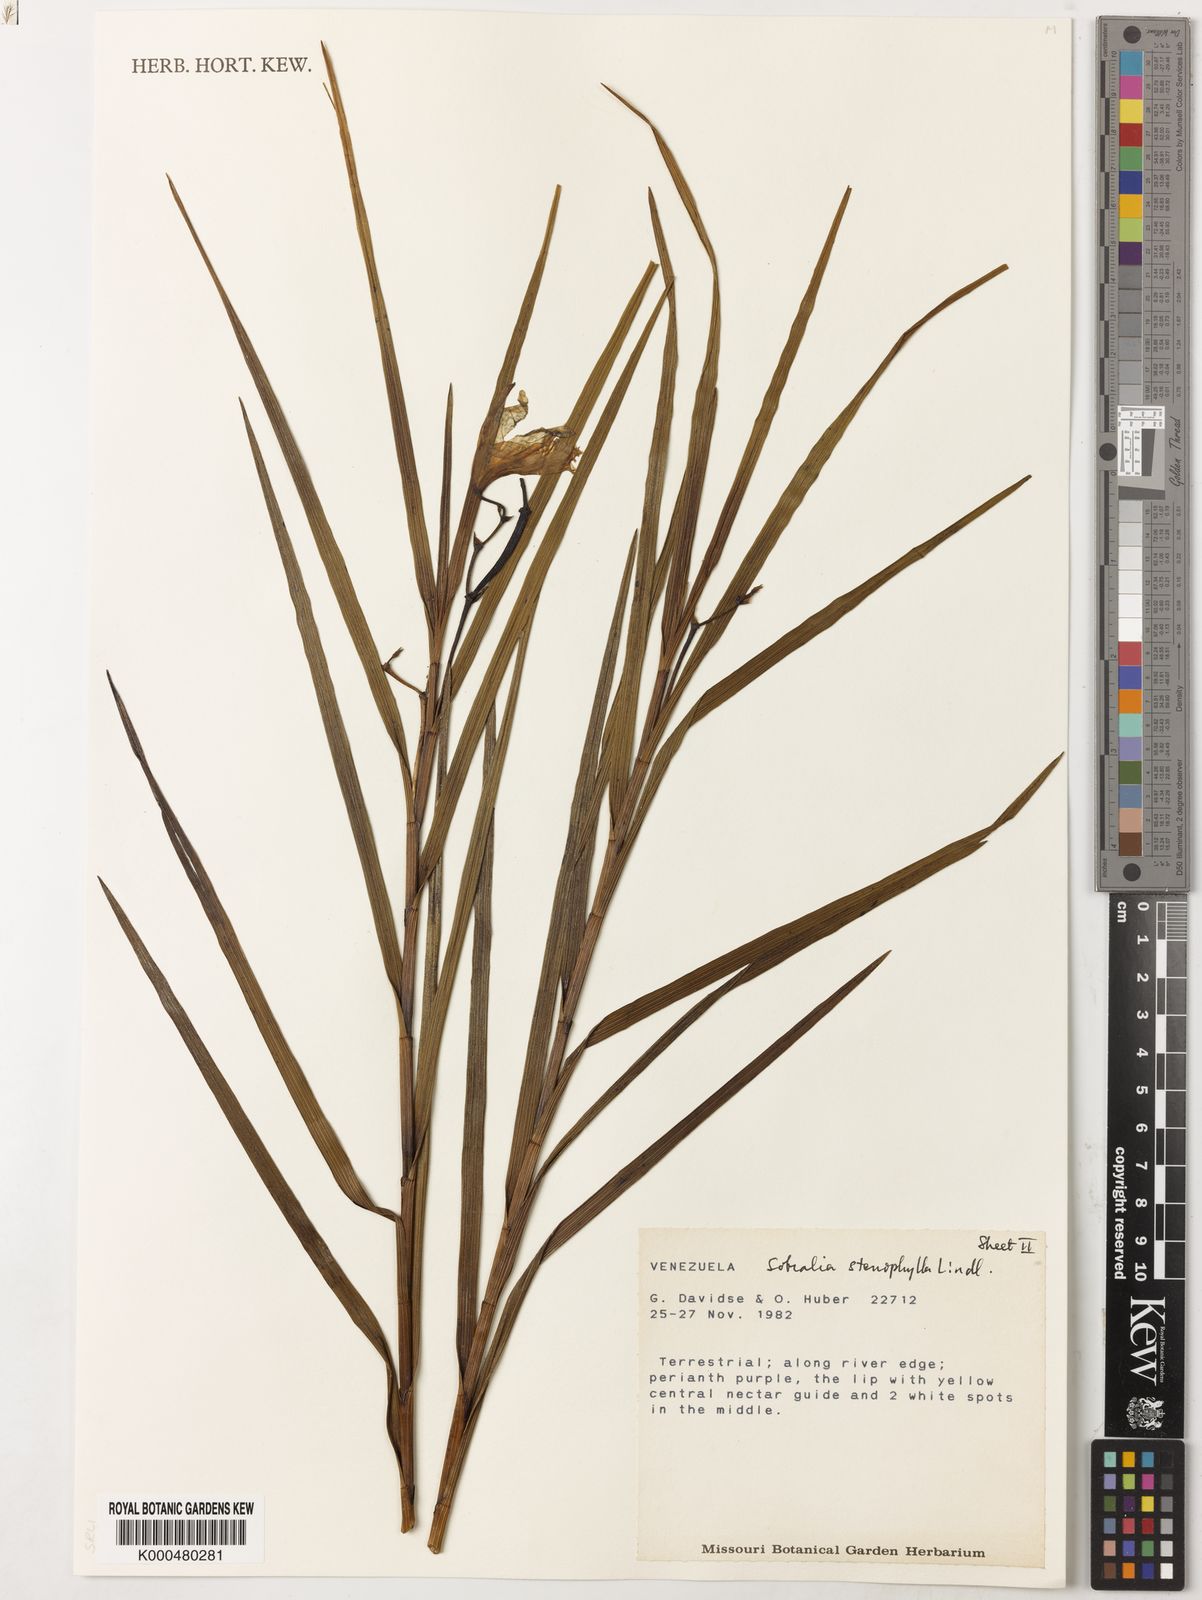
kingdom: Plantae
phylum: Tracheophyta
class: Liliopsida
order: Asparagales
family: Orchidaceae
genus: Sobralia
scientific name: Sobralia stenophylla
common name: Thin leafed sobralia
